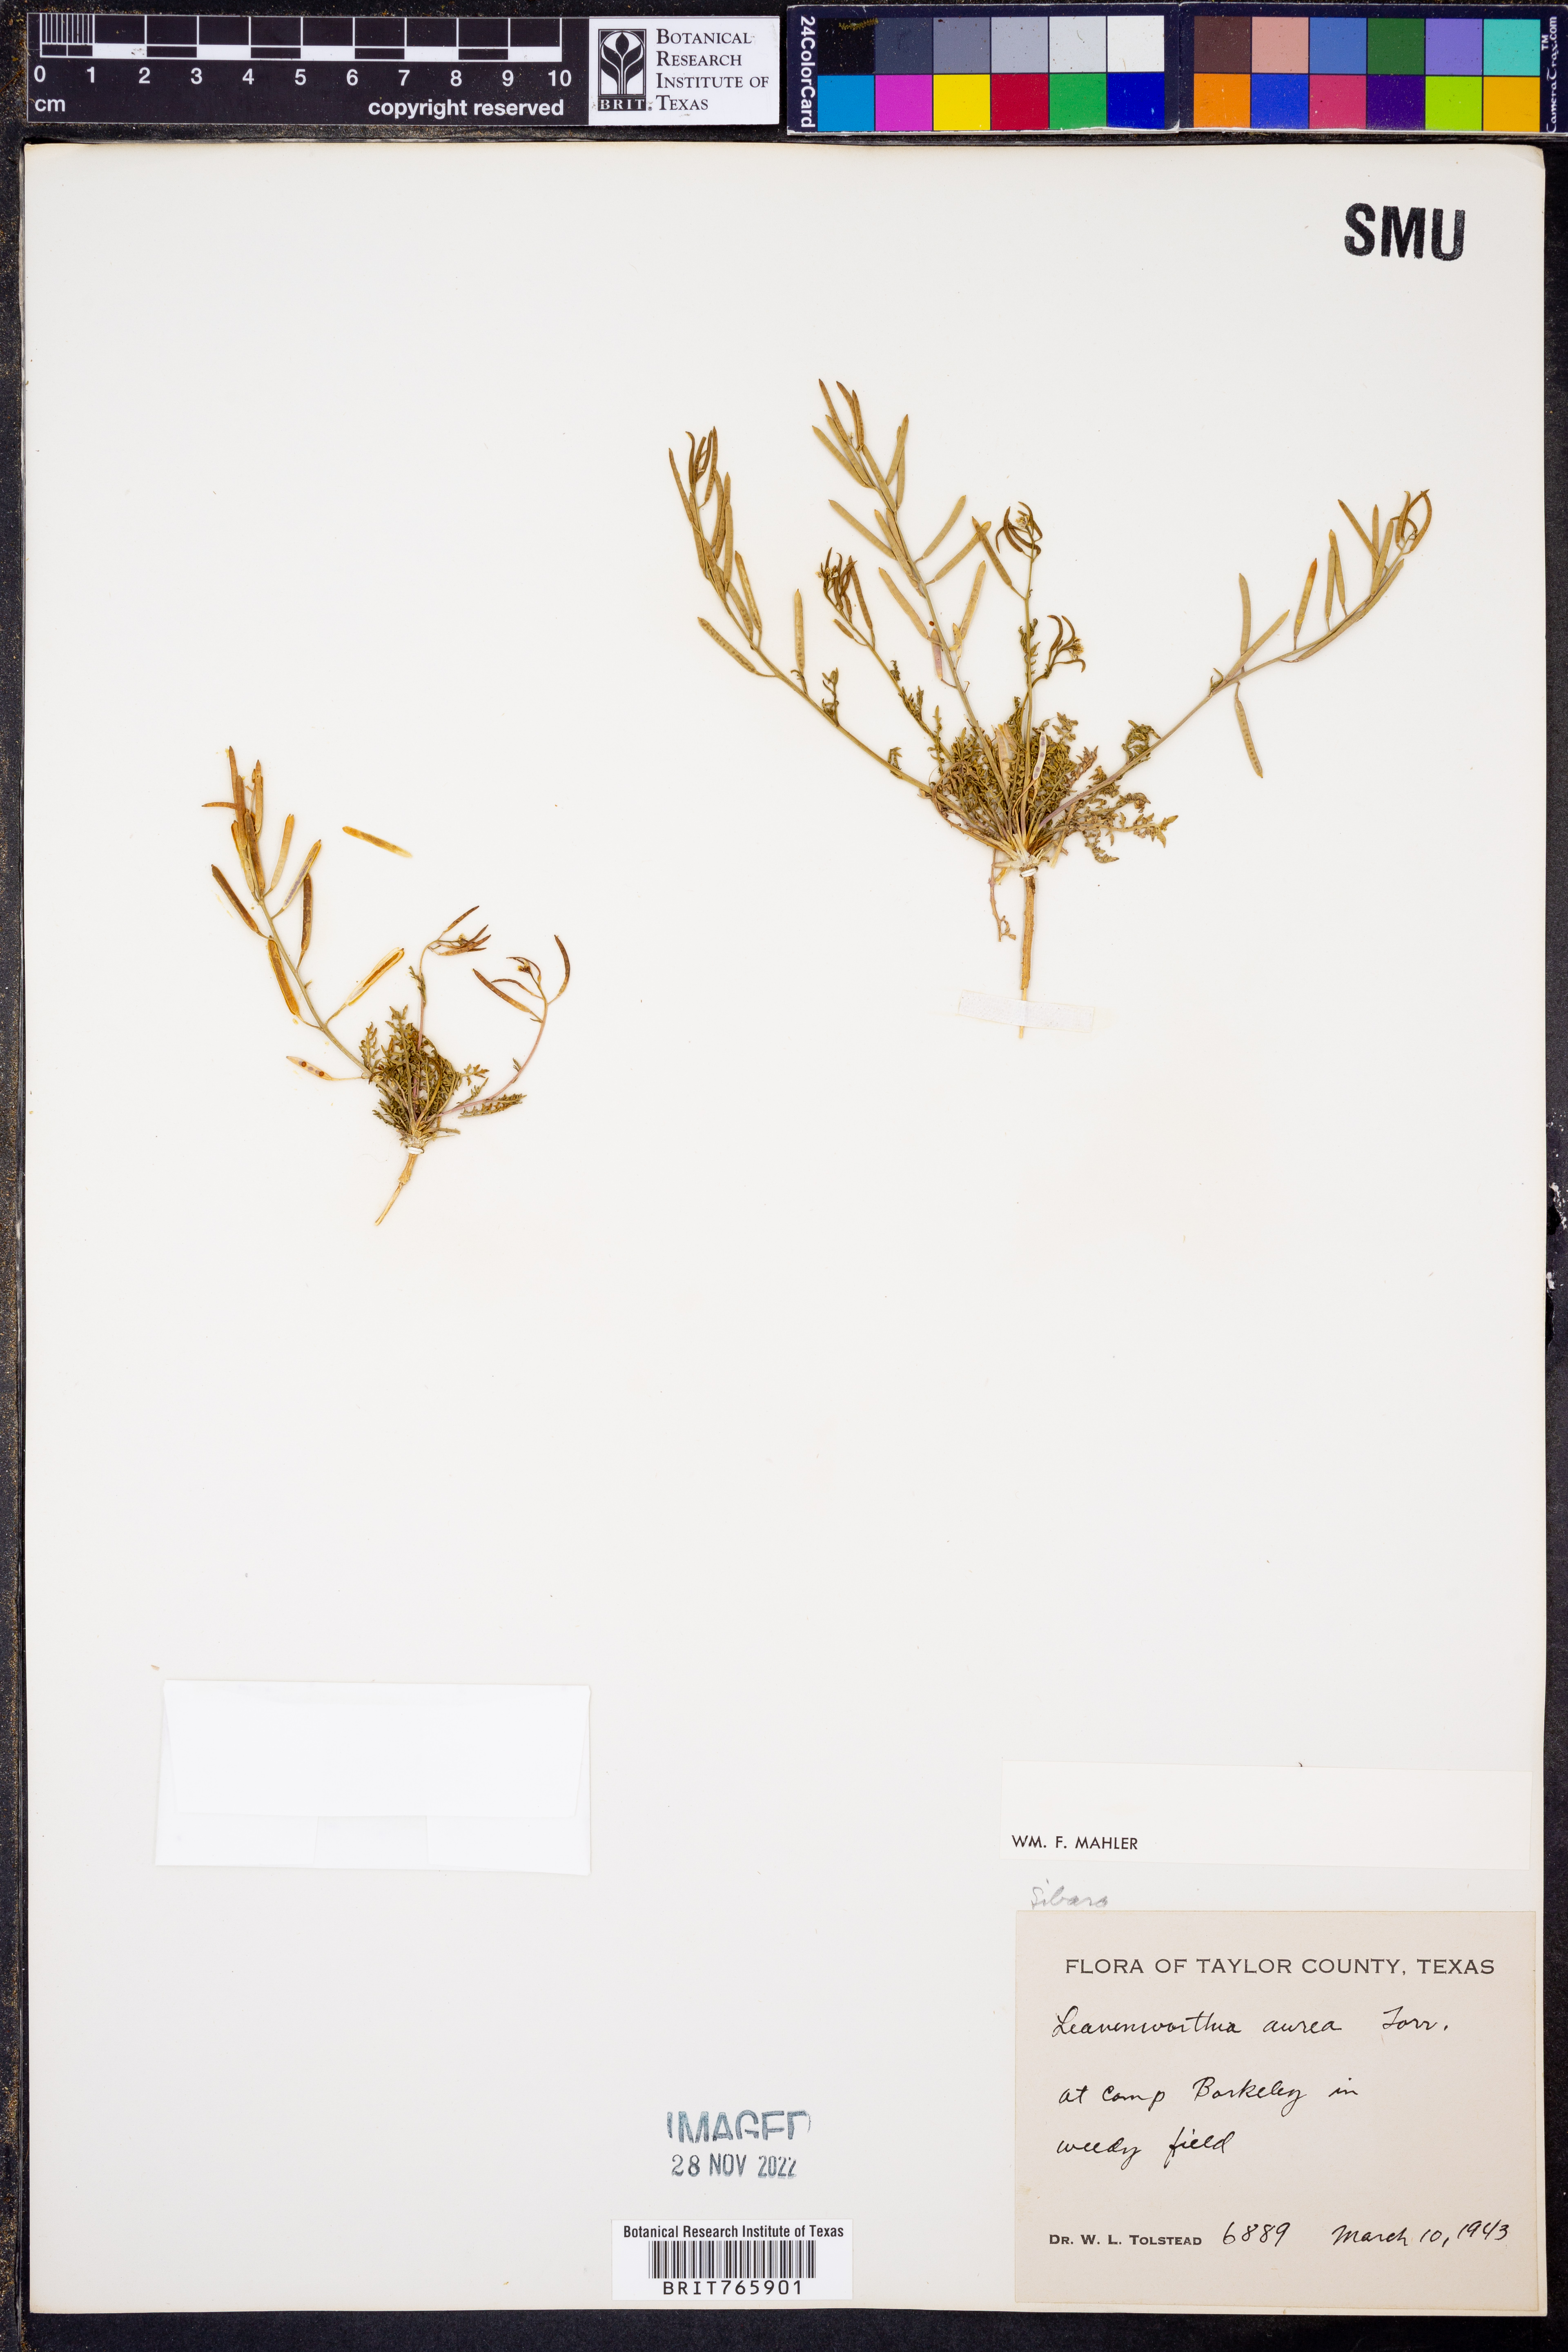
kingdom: Plantae
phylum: Tracheophyta
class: Magnoliopsida
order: Brassicales
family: Brassicaceae
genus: Sibara
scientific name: Sibara
